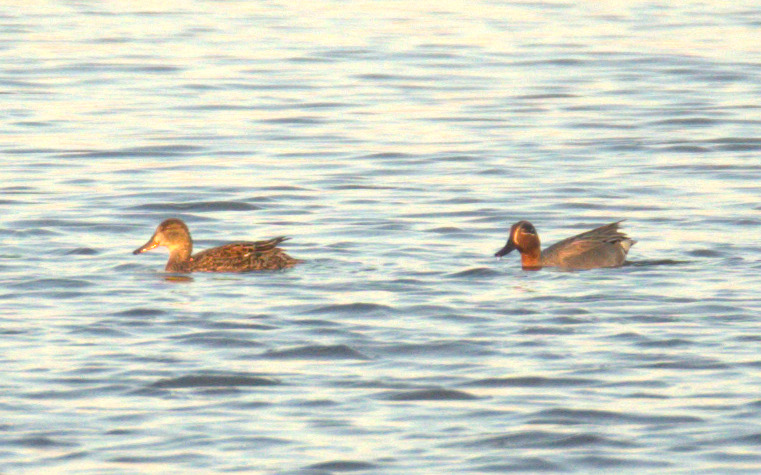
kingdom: Animalia
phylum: Chordata
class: Aves
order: Anseriformes
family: Anatidae
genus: Anas
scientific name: Anas crecca
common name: Krikand
